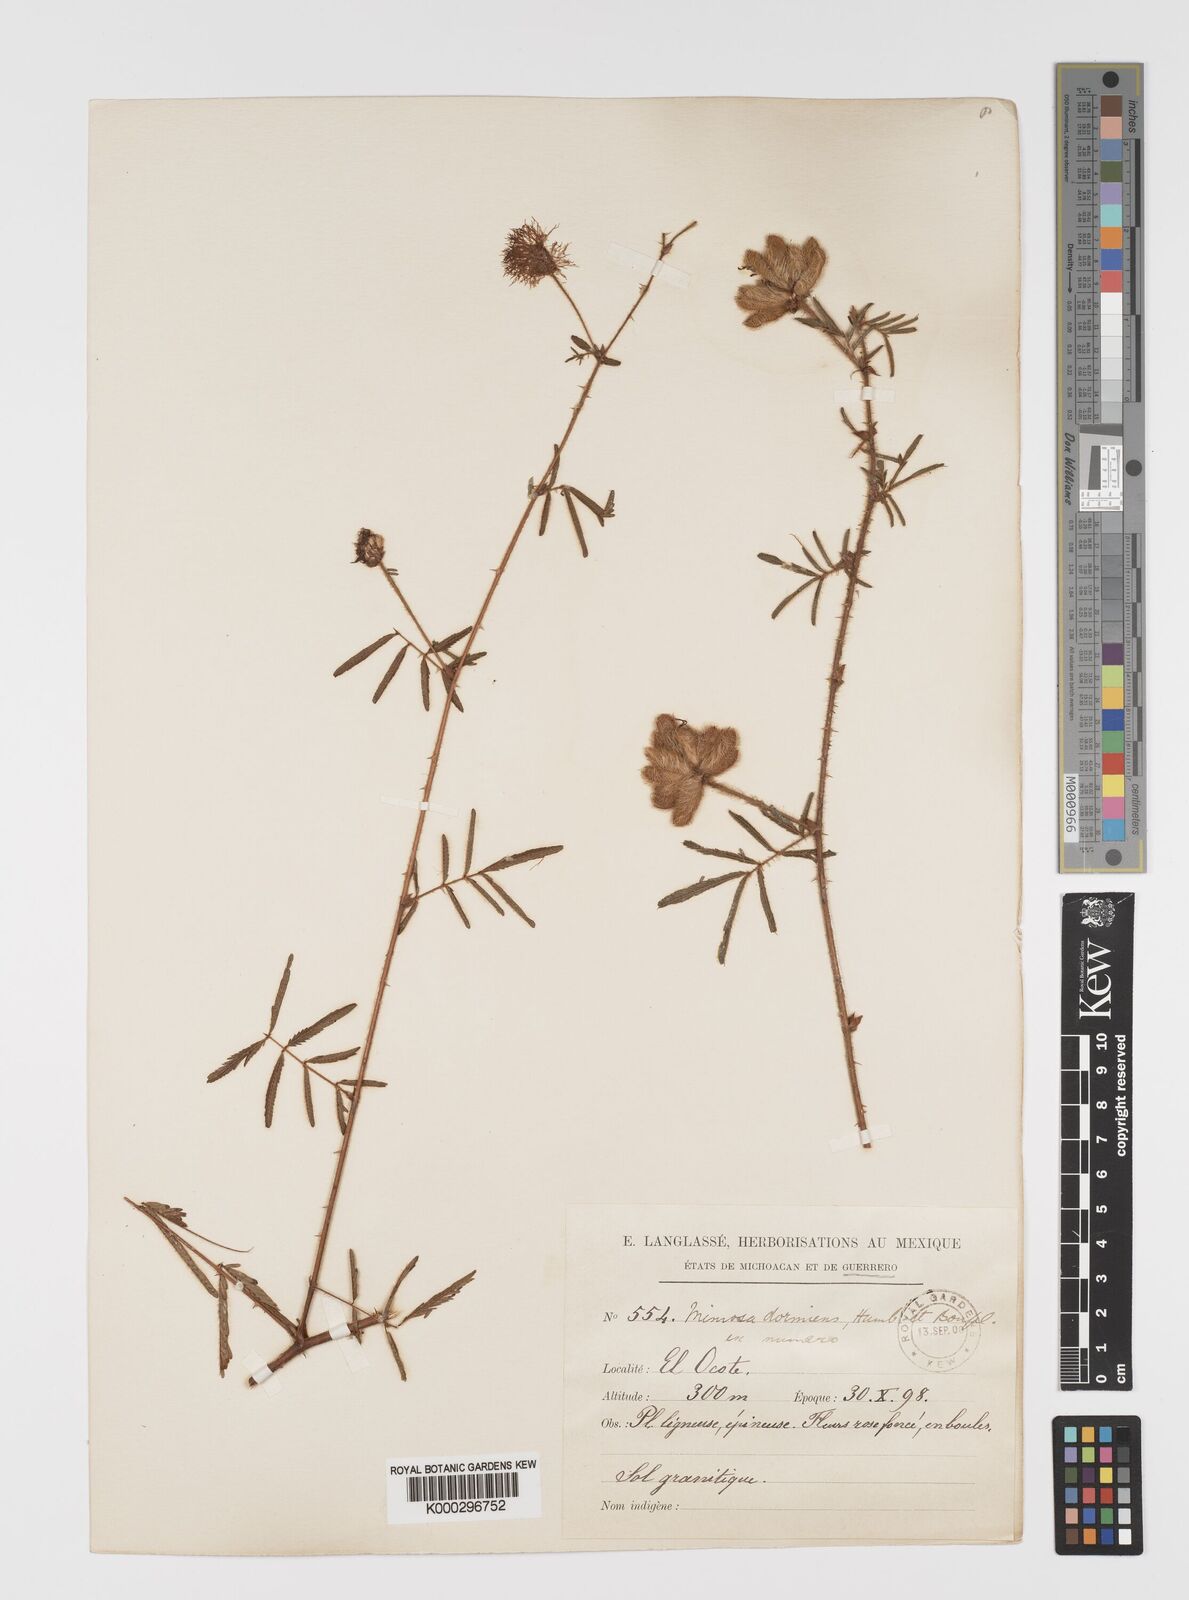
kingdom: Plantae
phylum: Tracheophyta
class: Magnoliopsida
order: Fabales
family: Fabaceae
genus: Mimosa
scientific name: Mimosa
